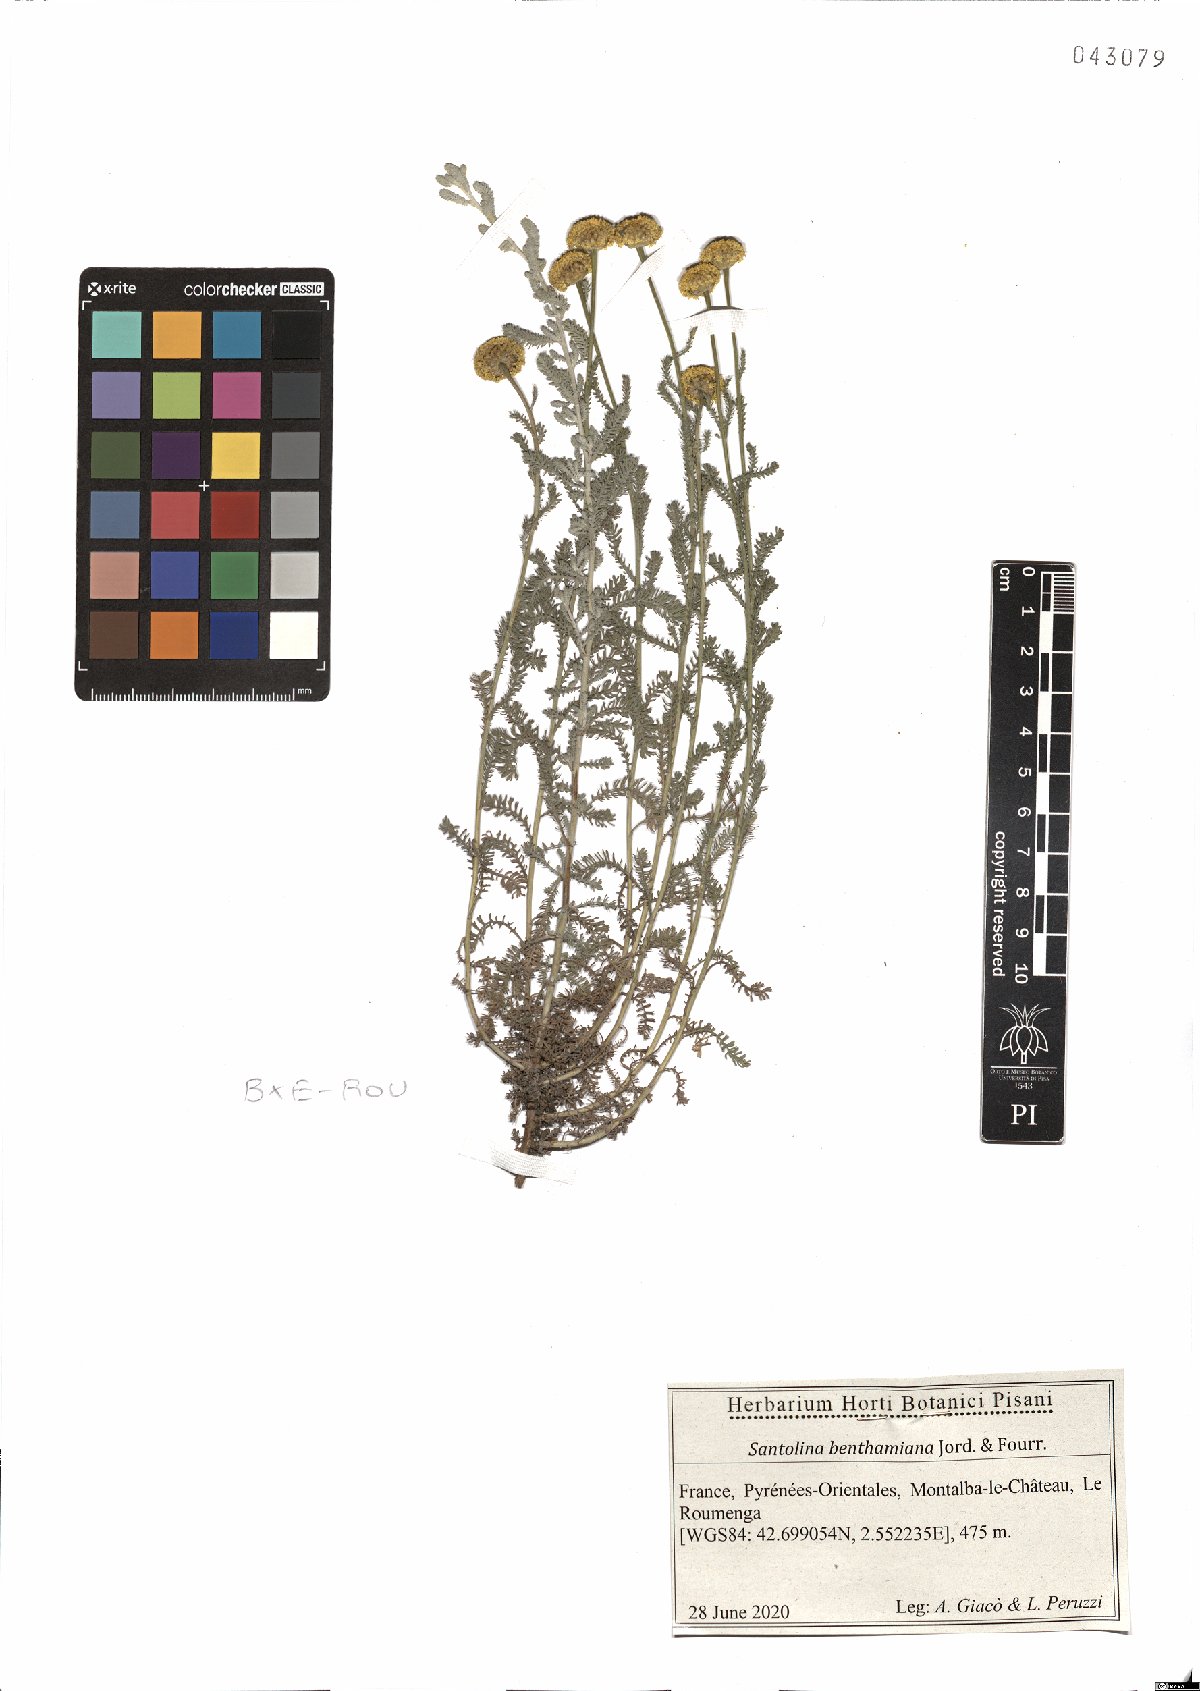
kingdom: Plantae
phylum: Tracheophyta
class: Magnoliopsida
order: Asterales
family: Asteraceae
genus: Santolina
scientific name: Santolina benthamiana
